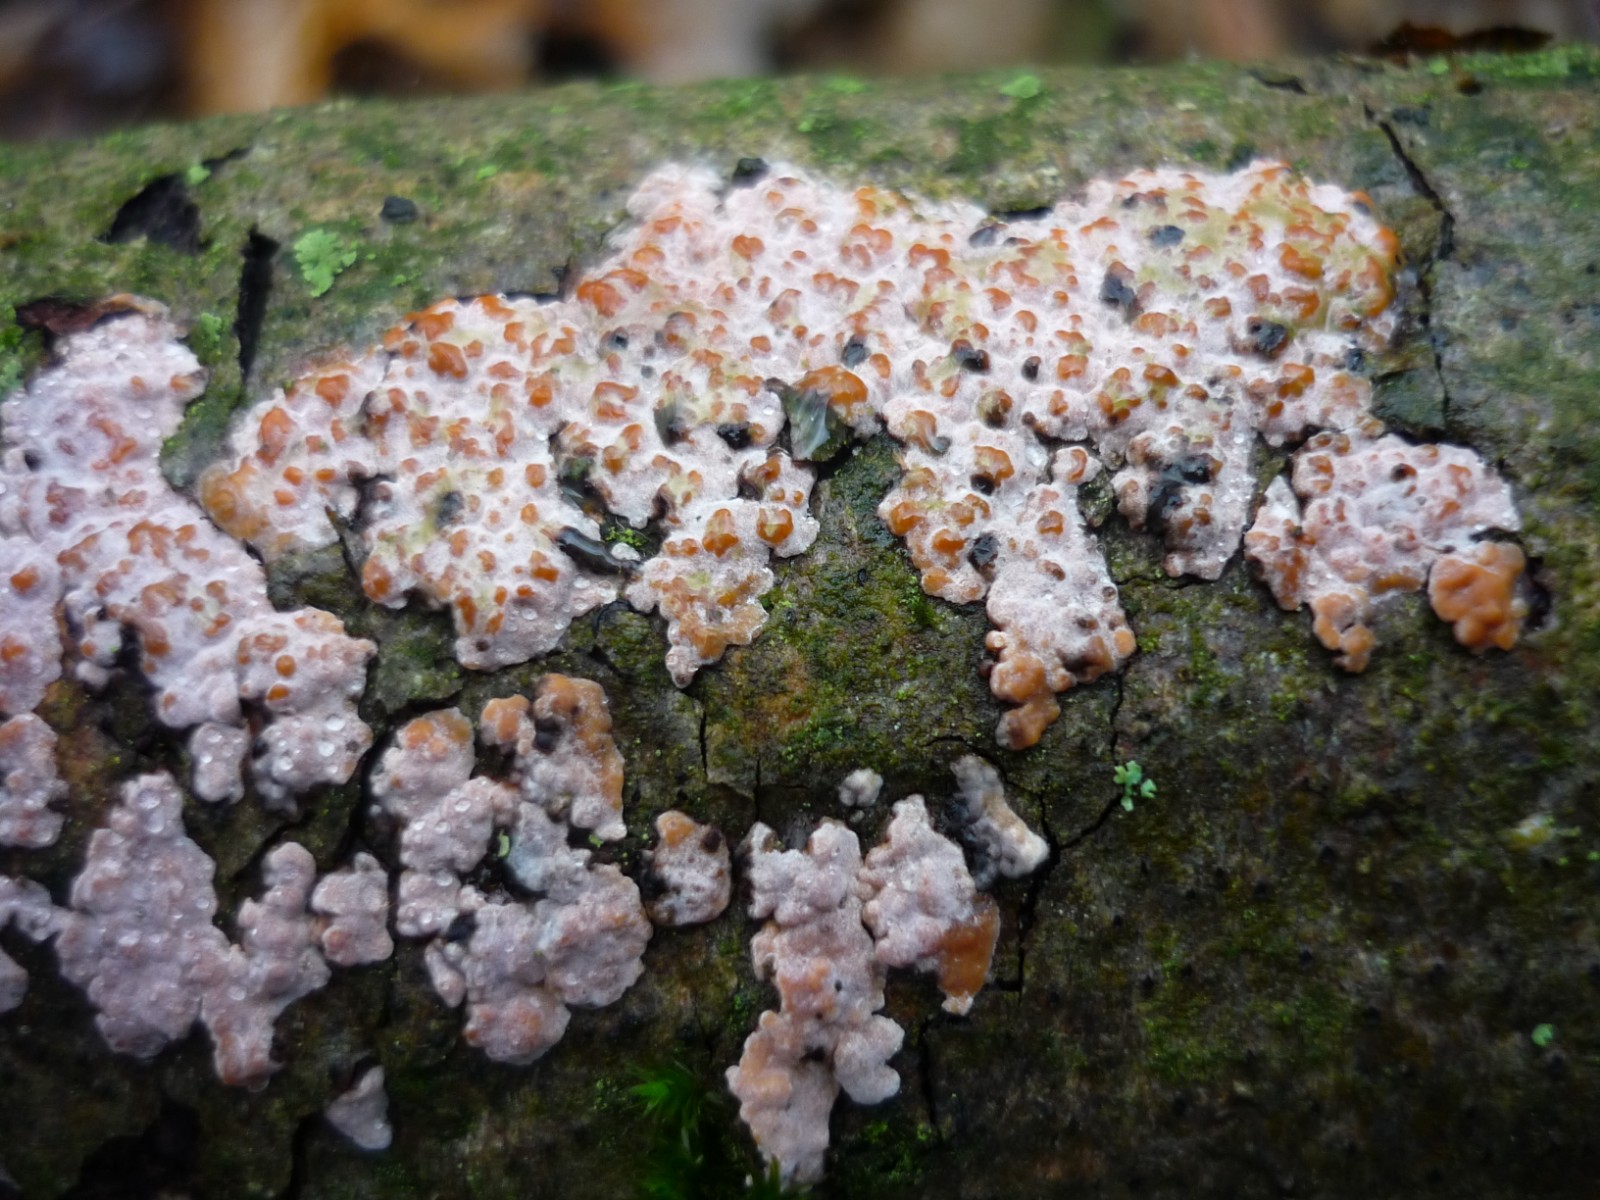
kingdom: Fungi
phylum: Basidiomycota
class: Agaricomycetes
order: Russulales
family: Peniophoraceae
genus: Peniophora
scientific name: Peniophora polygonia
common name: polygon-voksskind
